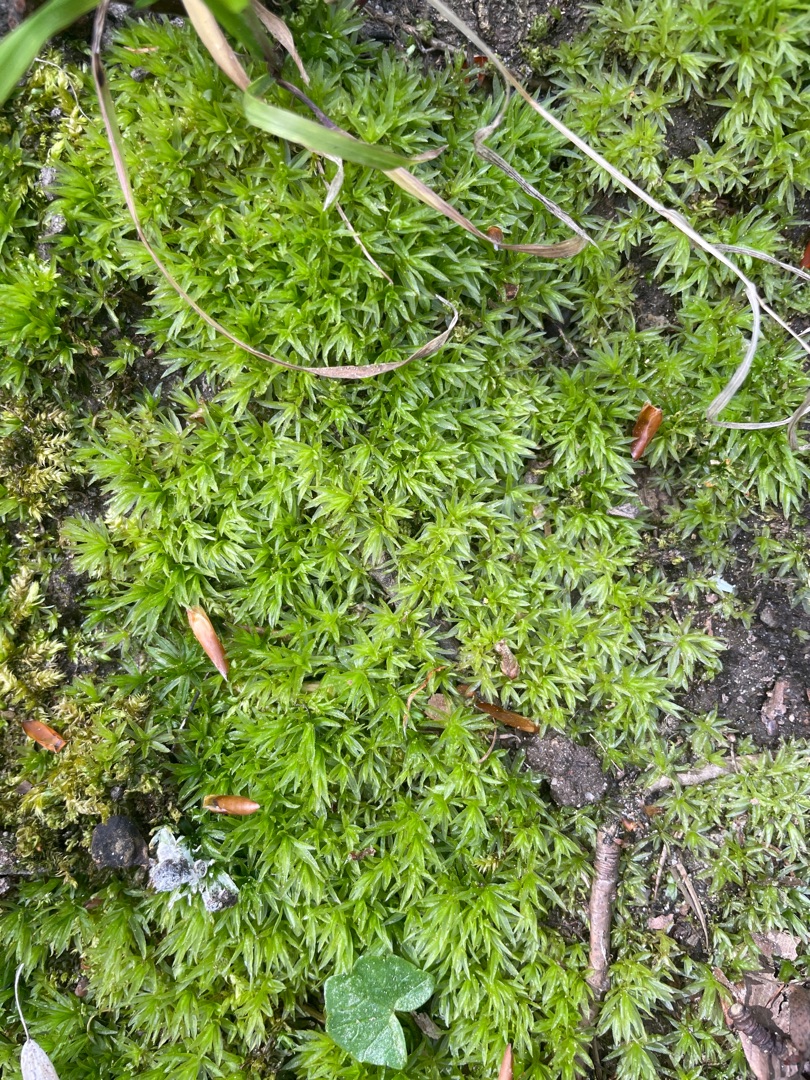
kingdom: Plantae
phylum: Bryophyta
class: Polytrichopsida
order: Polytrichales
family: Polytrichaceae
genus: Atrichum
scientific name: Atrichum undulatum
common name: Bølget katrinemos
